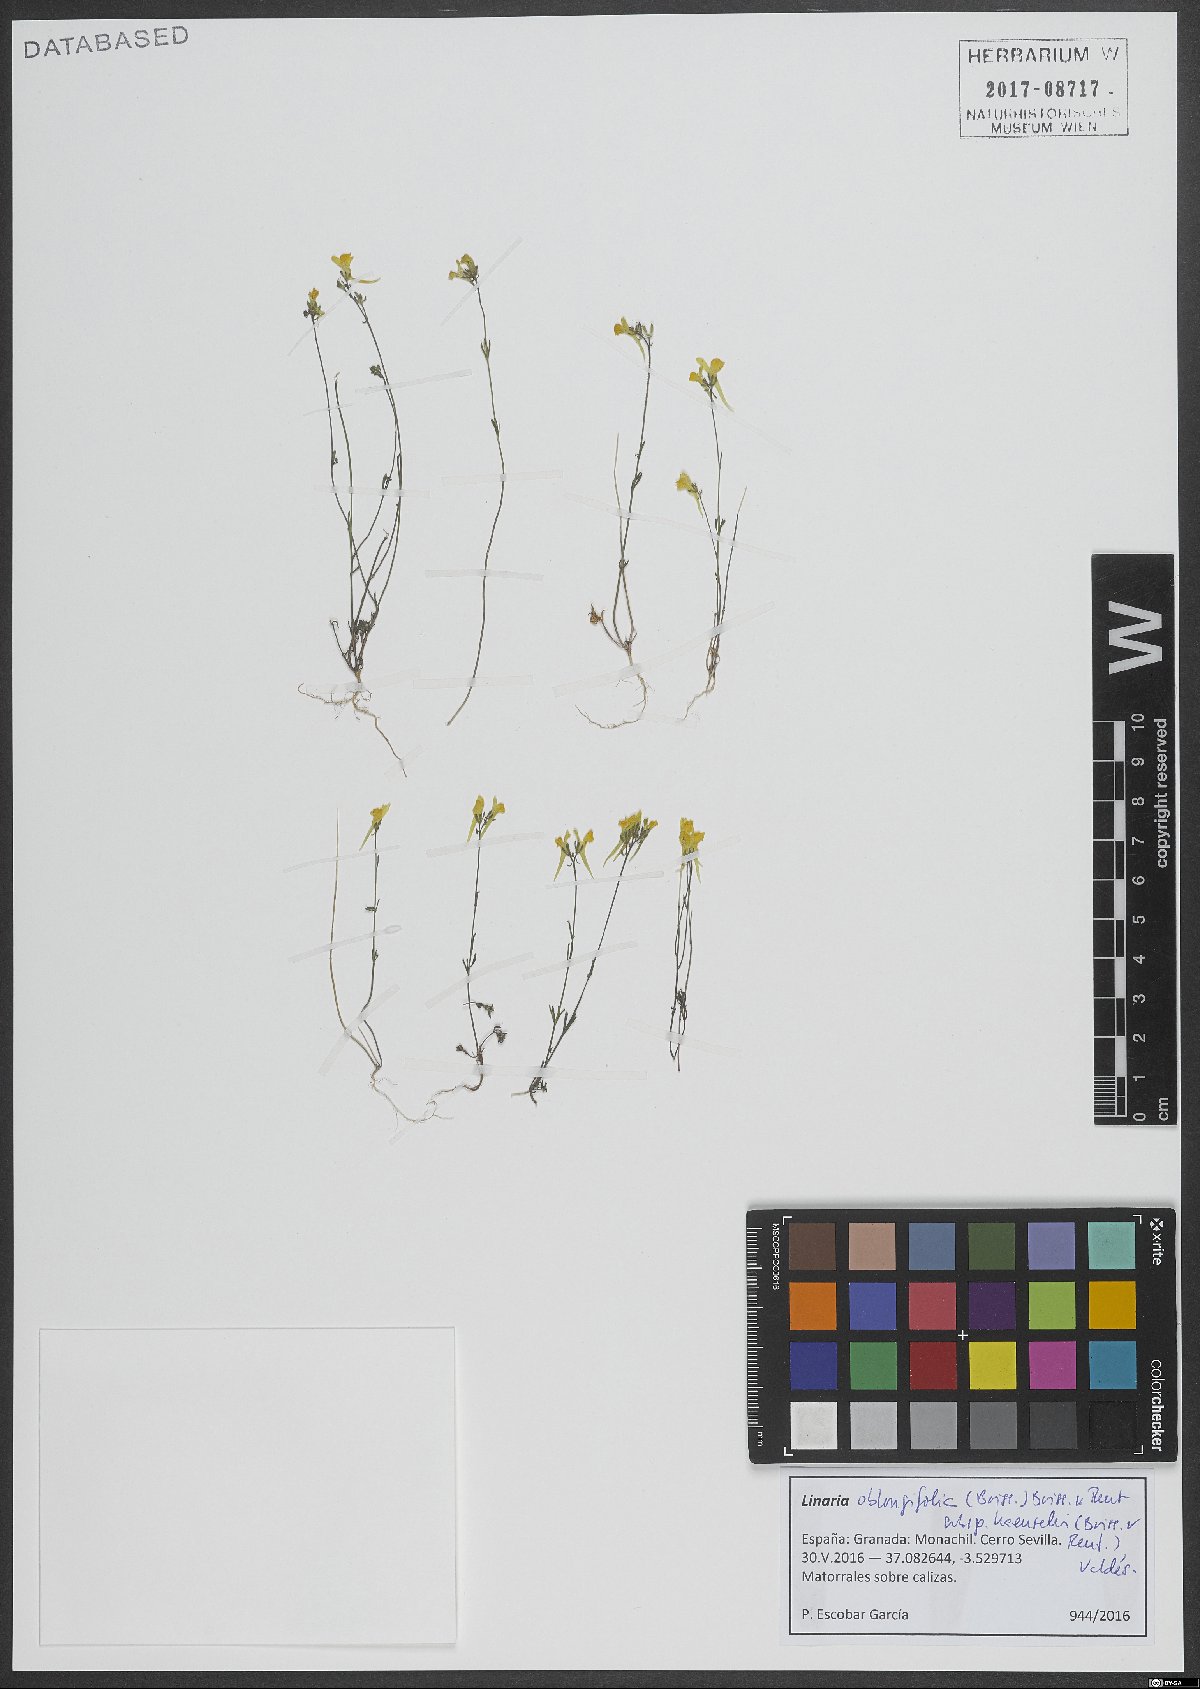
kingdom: Plantae
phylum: Tracheophyta
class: Magnoliopsida
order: Lamiales
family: Plantaginaceae
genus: Linaria
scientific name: Linaria oblongifolia
